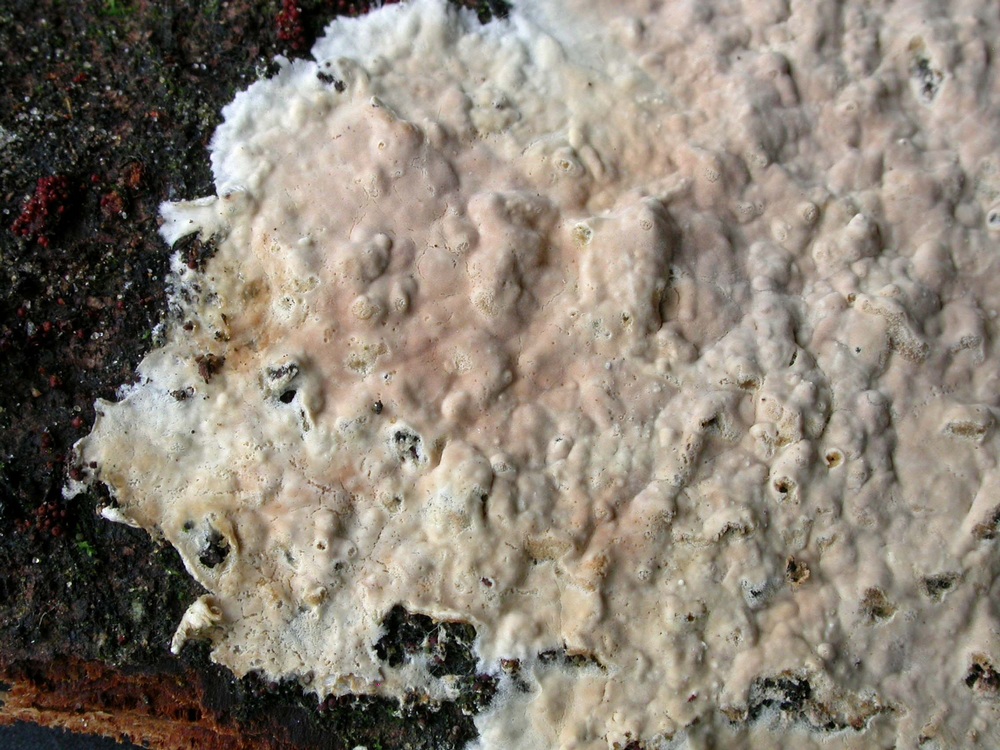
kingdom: Fungi
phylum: Basidiomycota
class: Agaricomycetes
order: Agaricales
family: Physalacriaceae
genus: Cylindrobasidium
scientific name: Cylindrobasidium evolvens
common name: sprækkehinde
